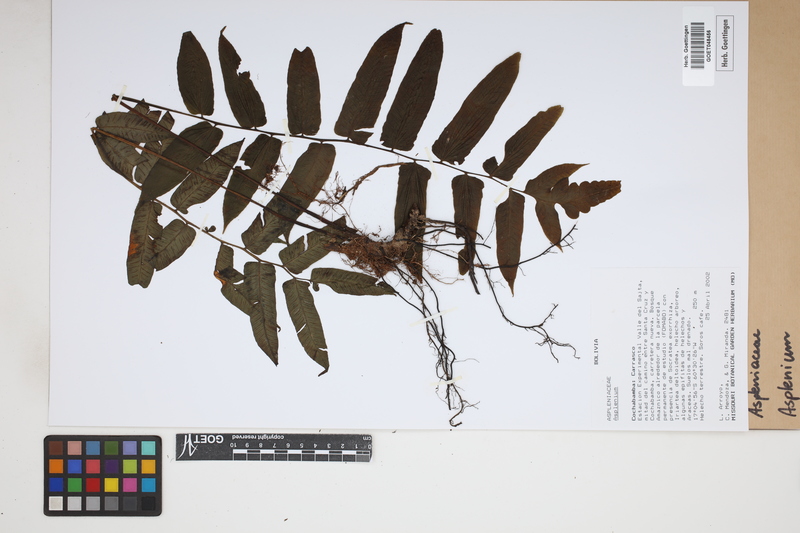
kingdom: Plantae
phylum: Tracheophyta
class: Polypodiopsida
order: Polypodiales
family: Aspleniaceae
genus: Asplenium
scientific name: Asplenium
